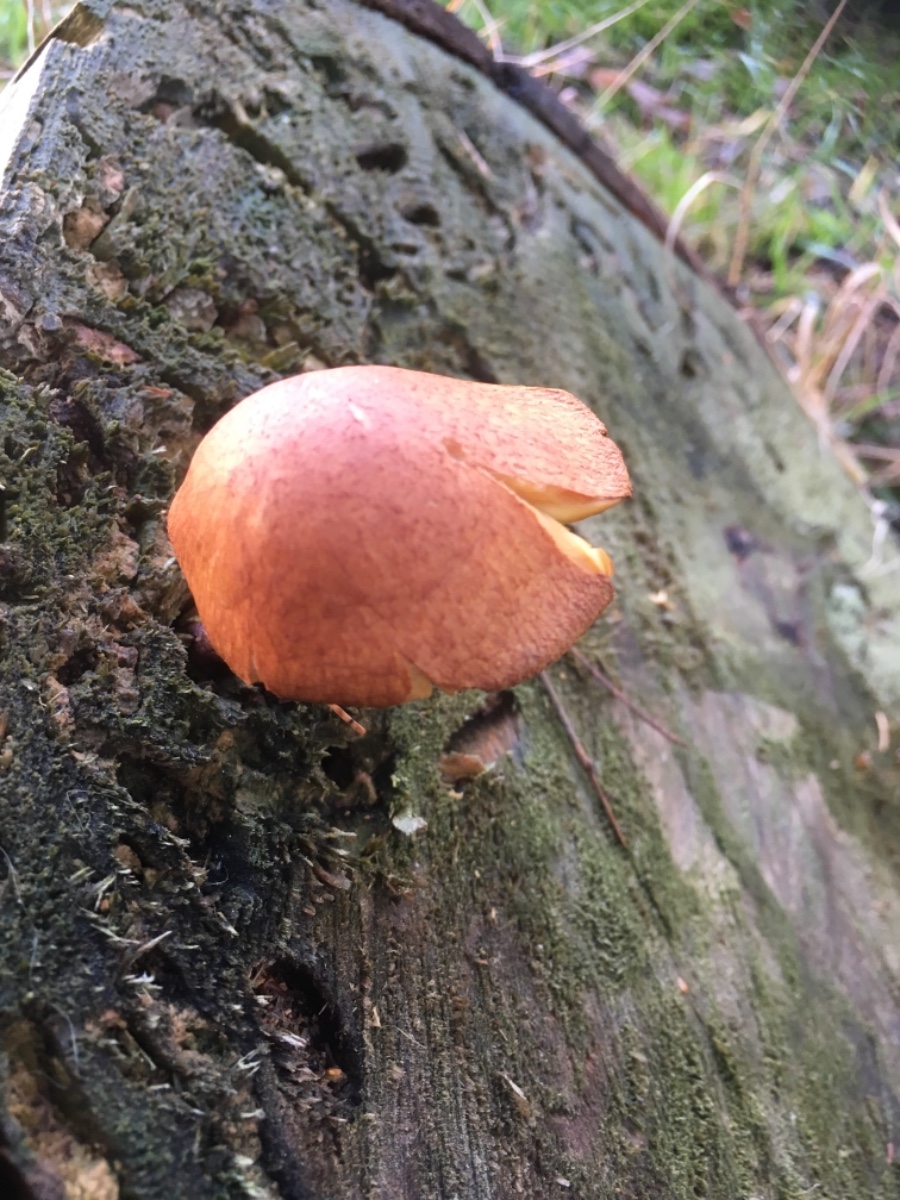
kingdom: Fungi
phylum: Basidiomycota
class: Agaricomycetes
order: Agaricales
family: Tricholomataceae
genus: Tricholomopsis
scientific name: Tricholomopsis rutilans
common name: purpur-væbnerhat
